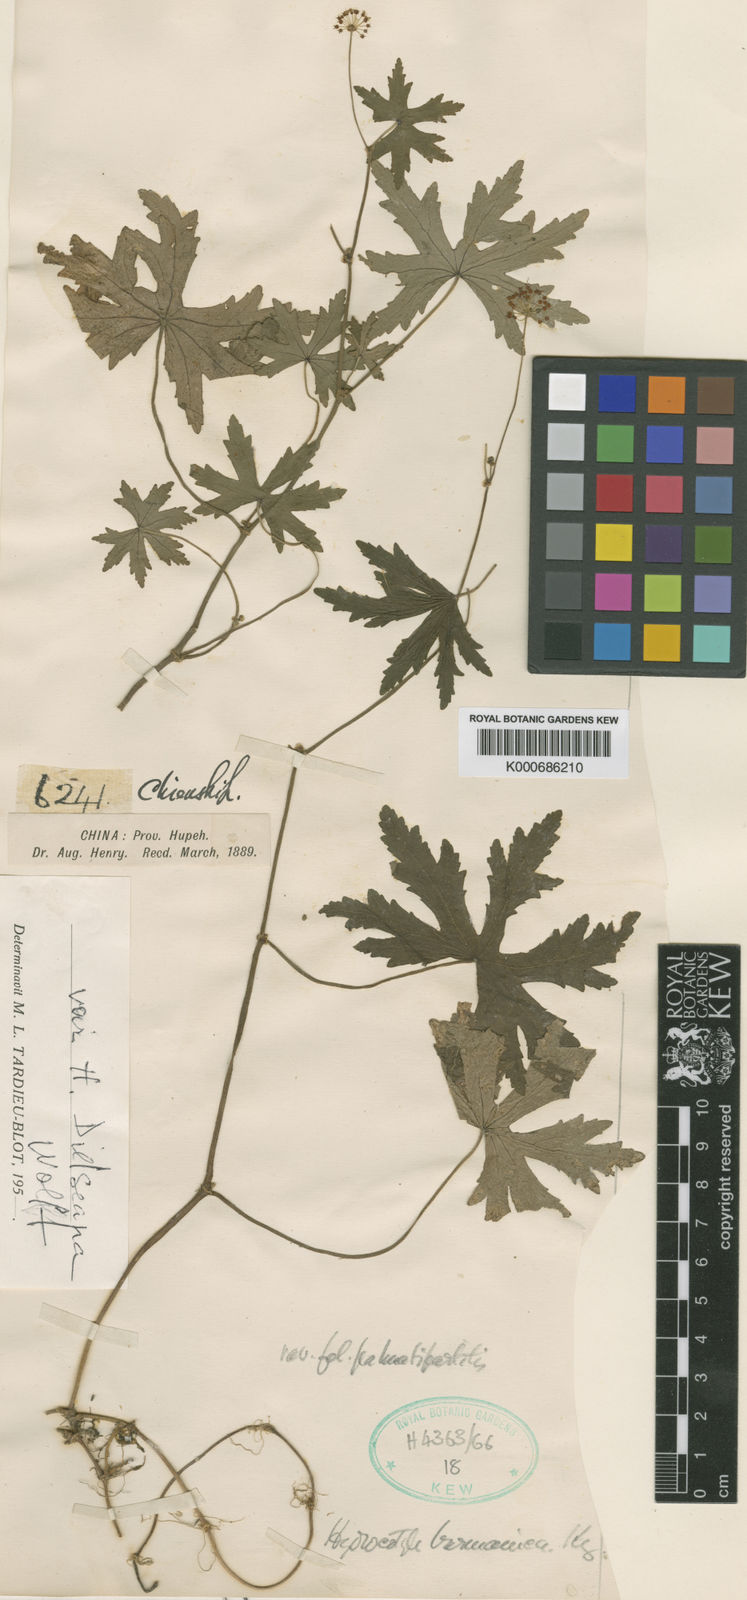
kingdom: Plantae
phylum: Tracheophyta
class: Magnoliopsida
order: Apiales
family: Araliaceae
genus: Hydrocotyle
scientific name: Hydrocotyle dielsiana
